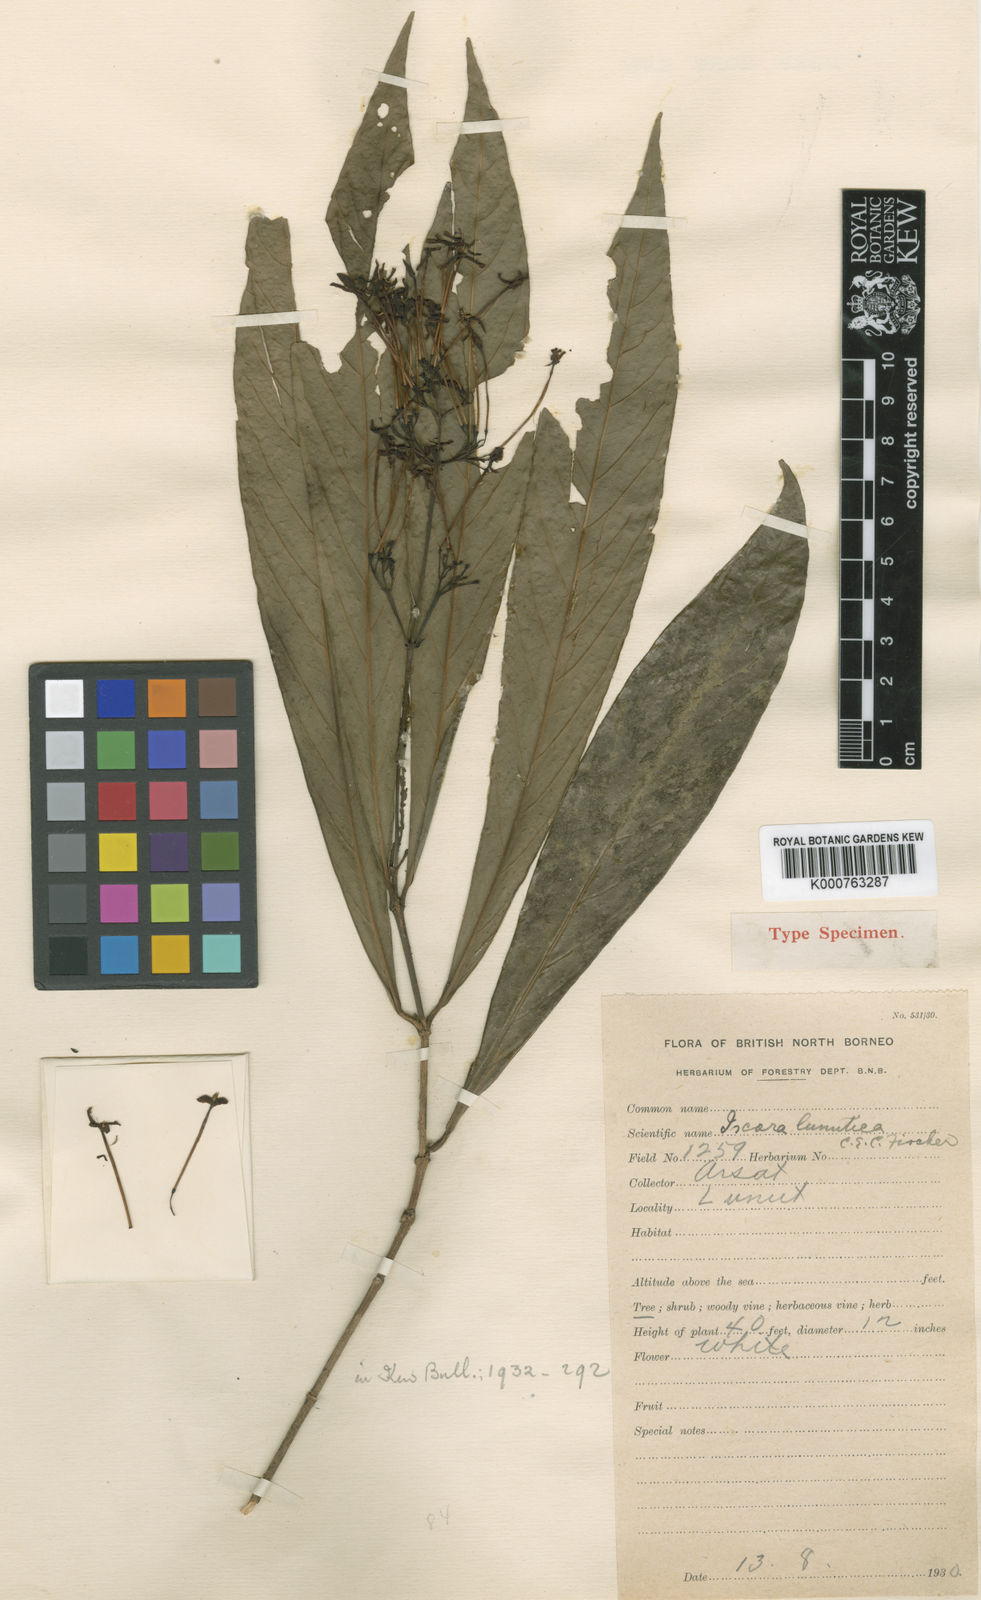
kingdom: Plantae
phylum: Tracheophyta
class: Magnoliopsida
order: Gentianales
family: Rubiaceae
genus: Ixora
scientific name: Ixora lunutica
